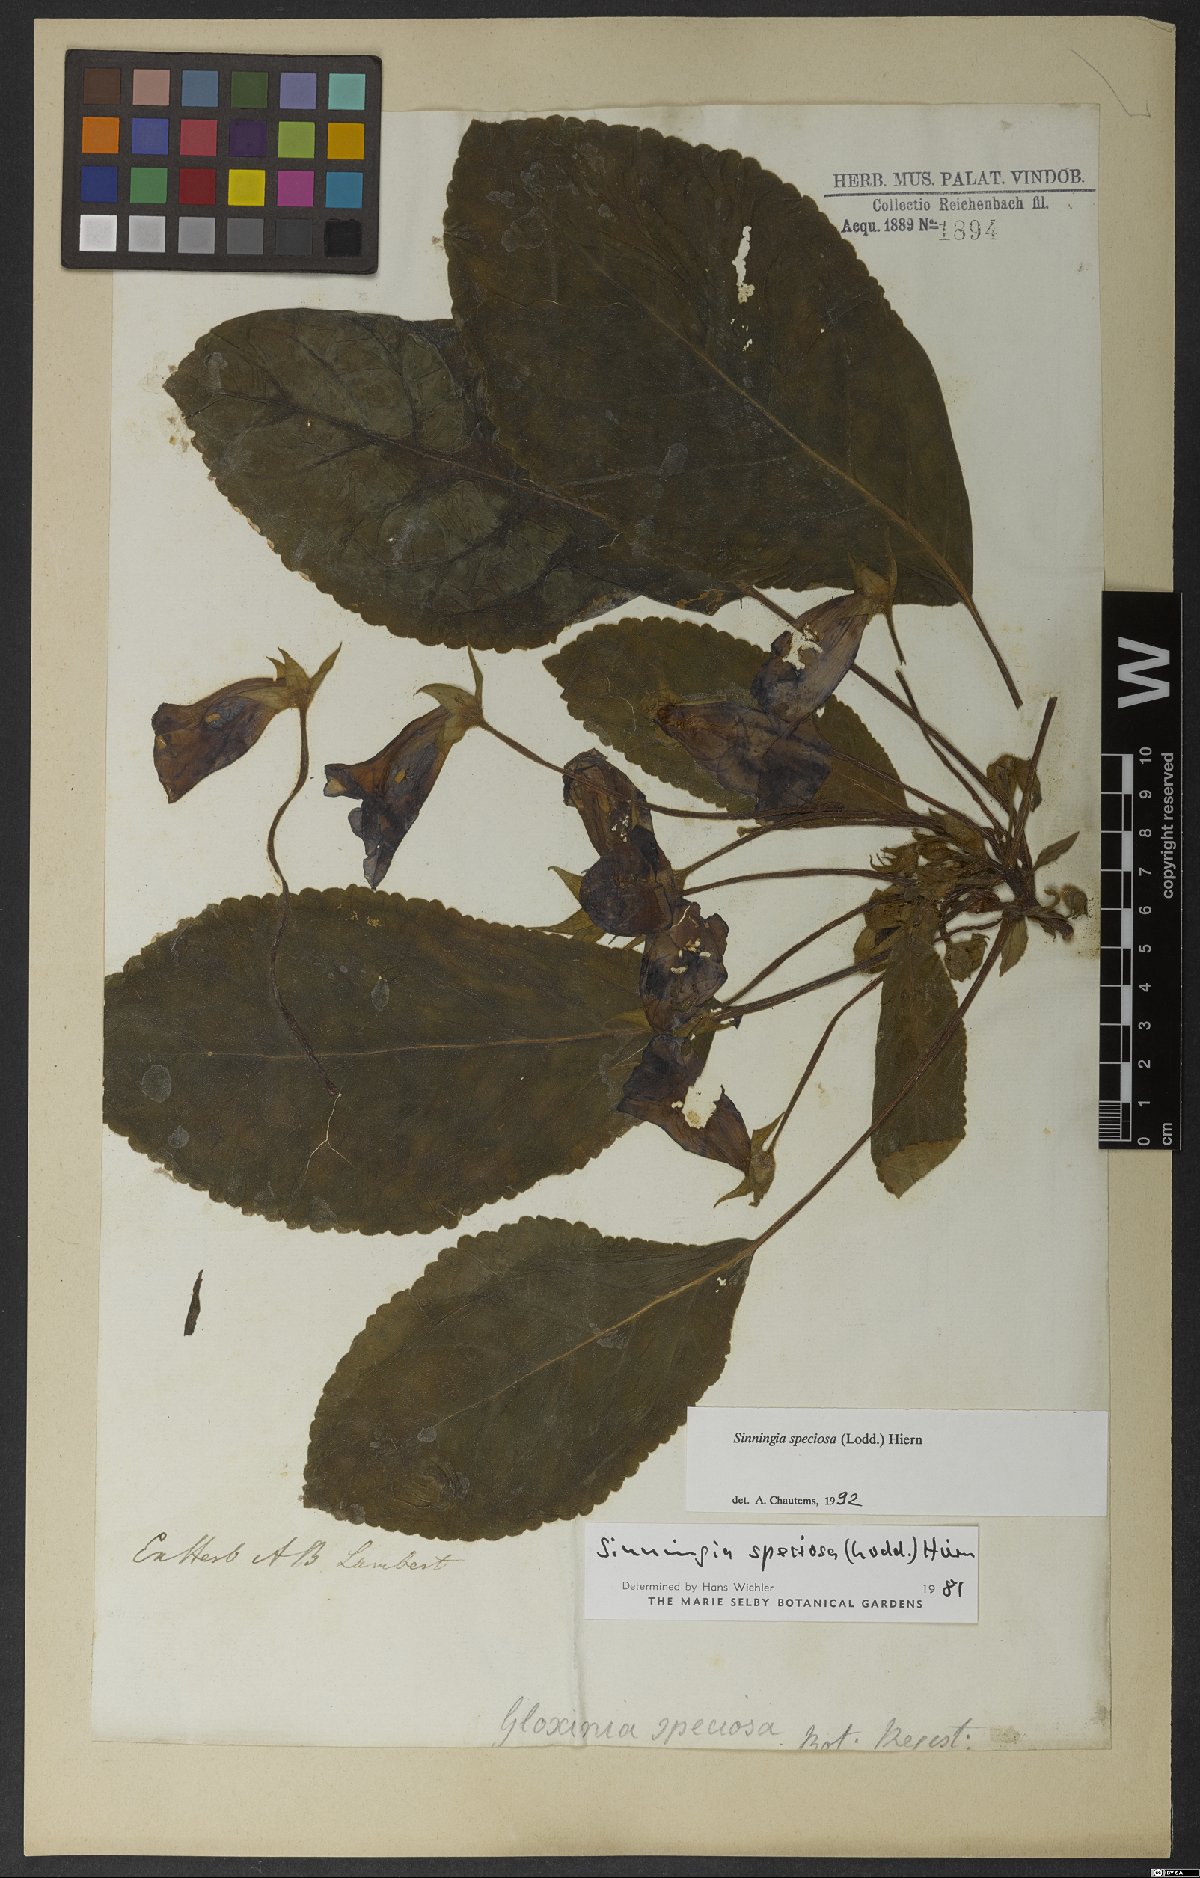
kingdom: Plantae
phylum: Tracheophyta
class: Magnoliopsida
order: Lamiales
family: Gesneriaceae
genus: Sinningia
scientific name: Sinningia speciosa
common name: Brazilian gloxinia
